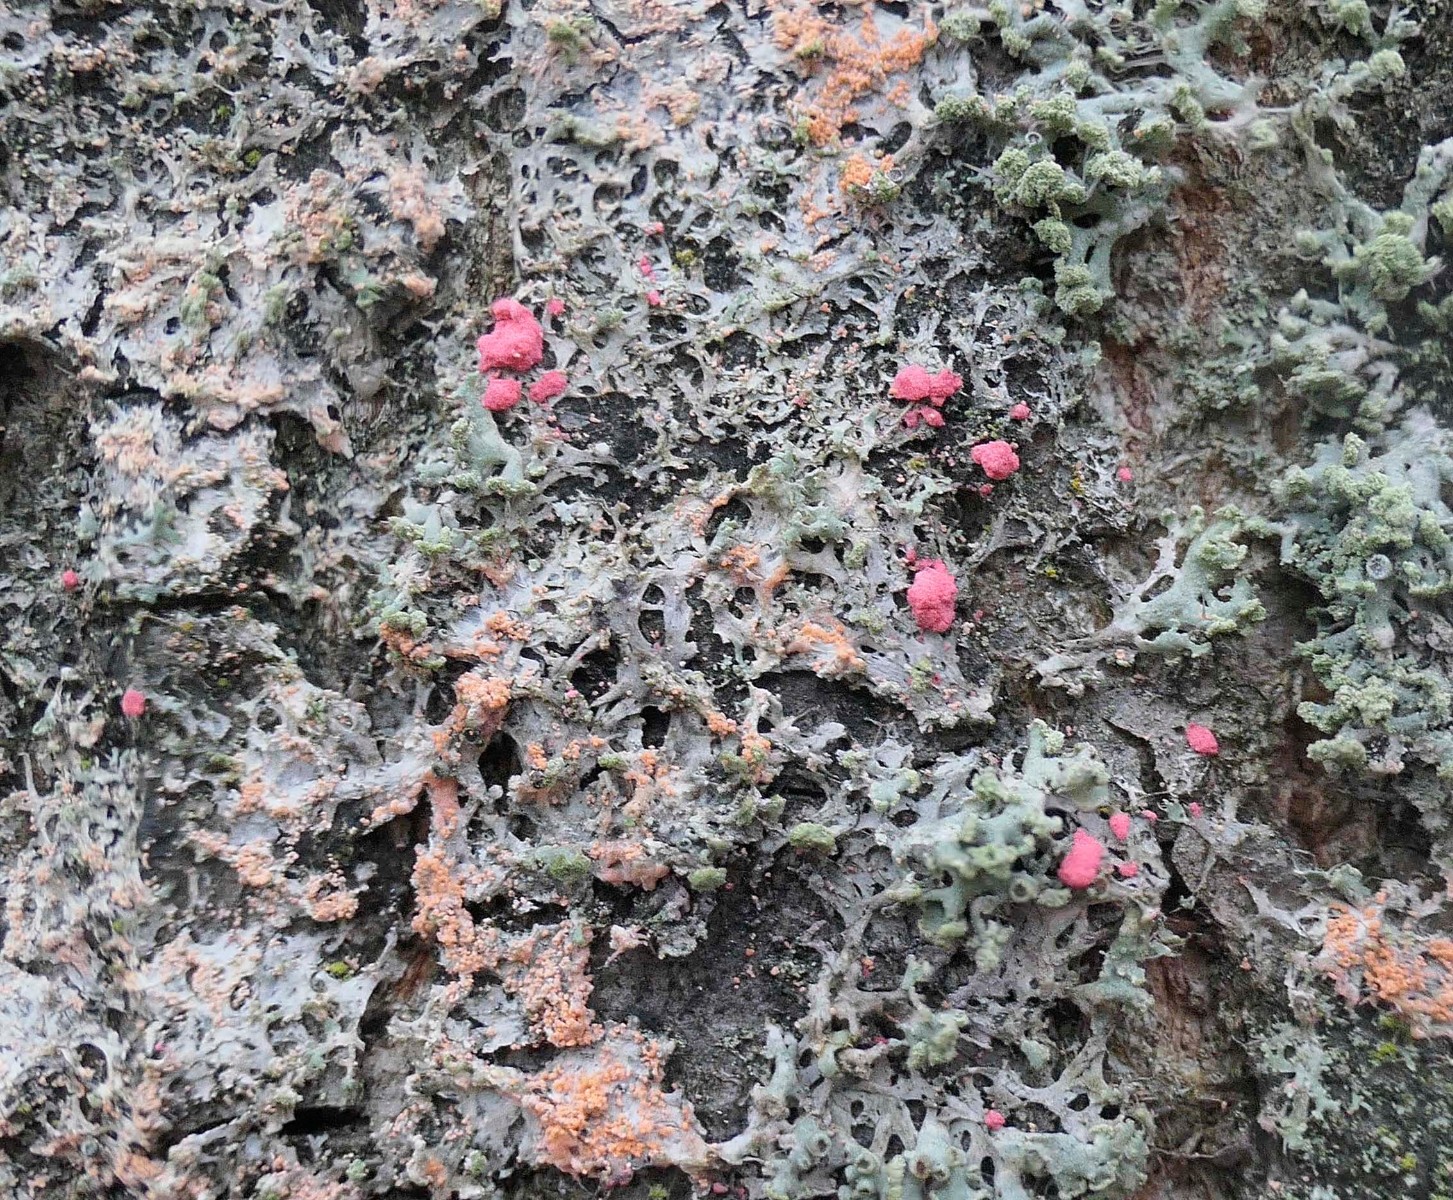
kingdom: Fungi
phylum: Ascomycota
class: Sordariomycetes
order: Hypocreales
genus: Illosporiopsis
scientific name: Illosporiopsis christiansenii
